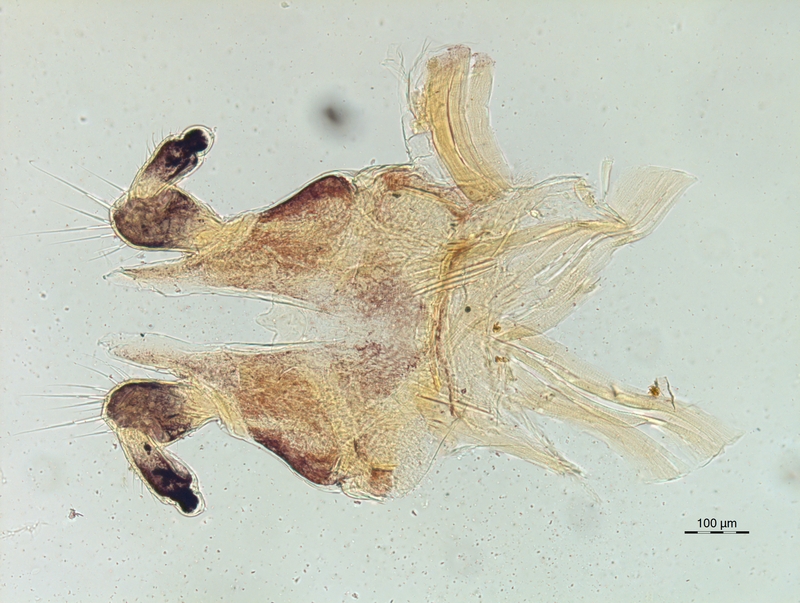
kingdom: Animalia
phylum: Arthropoda
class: Diplopoda
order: Chordeumatida
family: Chordeumatidae
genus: Chordeuma
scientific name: Chordeuma sylvestre
